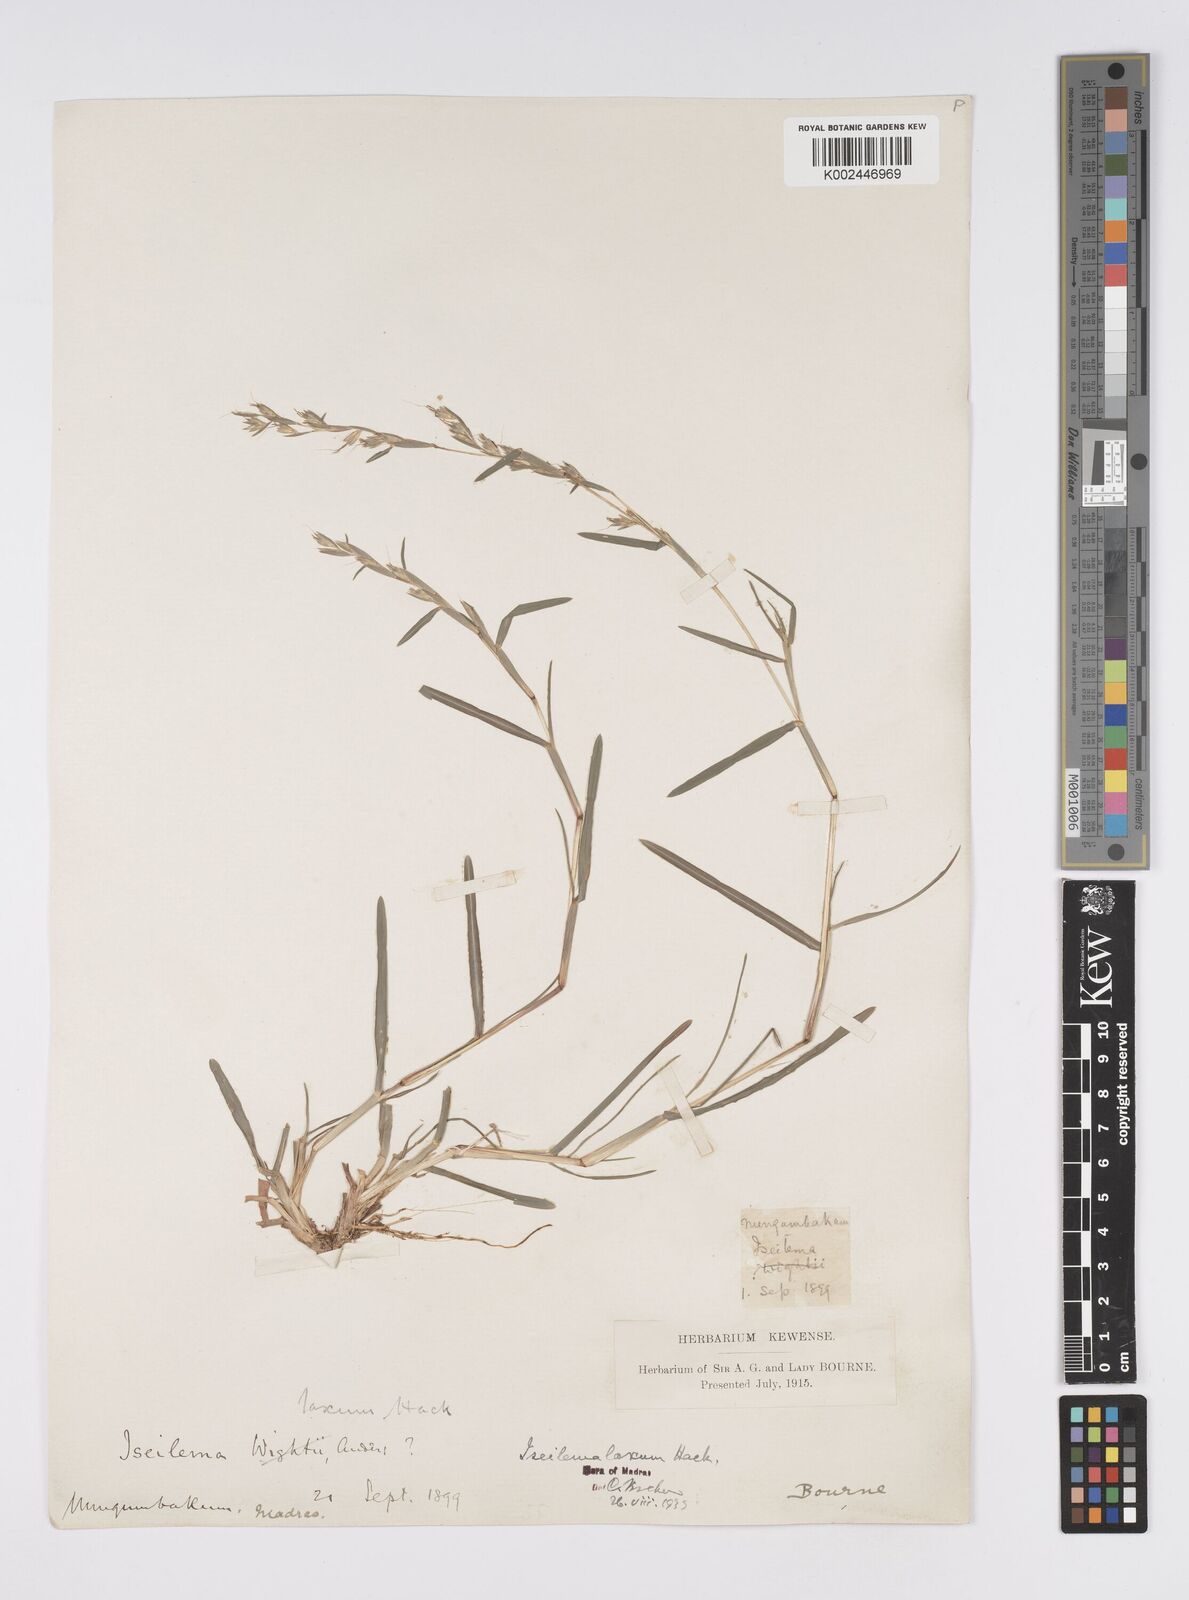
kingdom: Plantae
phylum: Tracheophyta
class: Liliopsida
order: Poales
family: Poaceae
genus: Iseilema
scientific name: Iseilema prostratum
